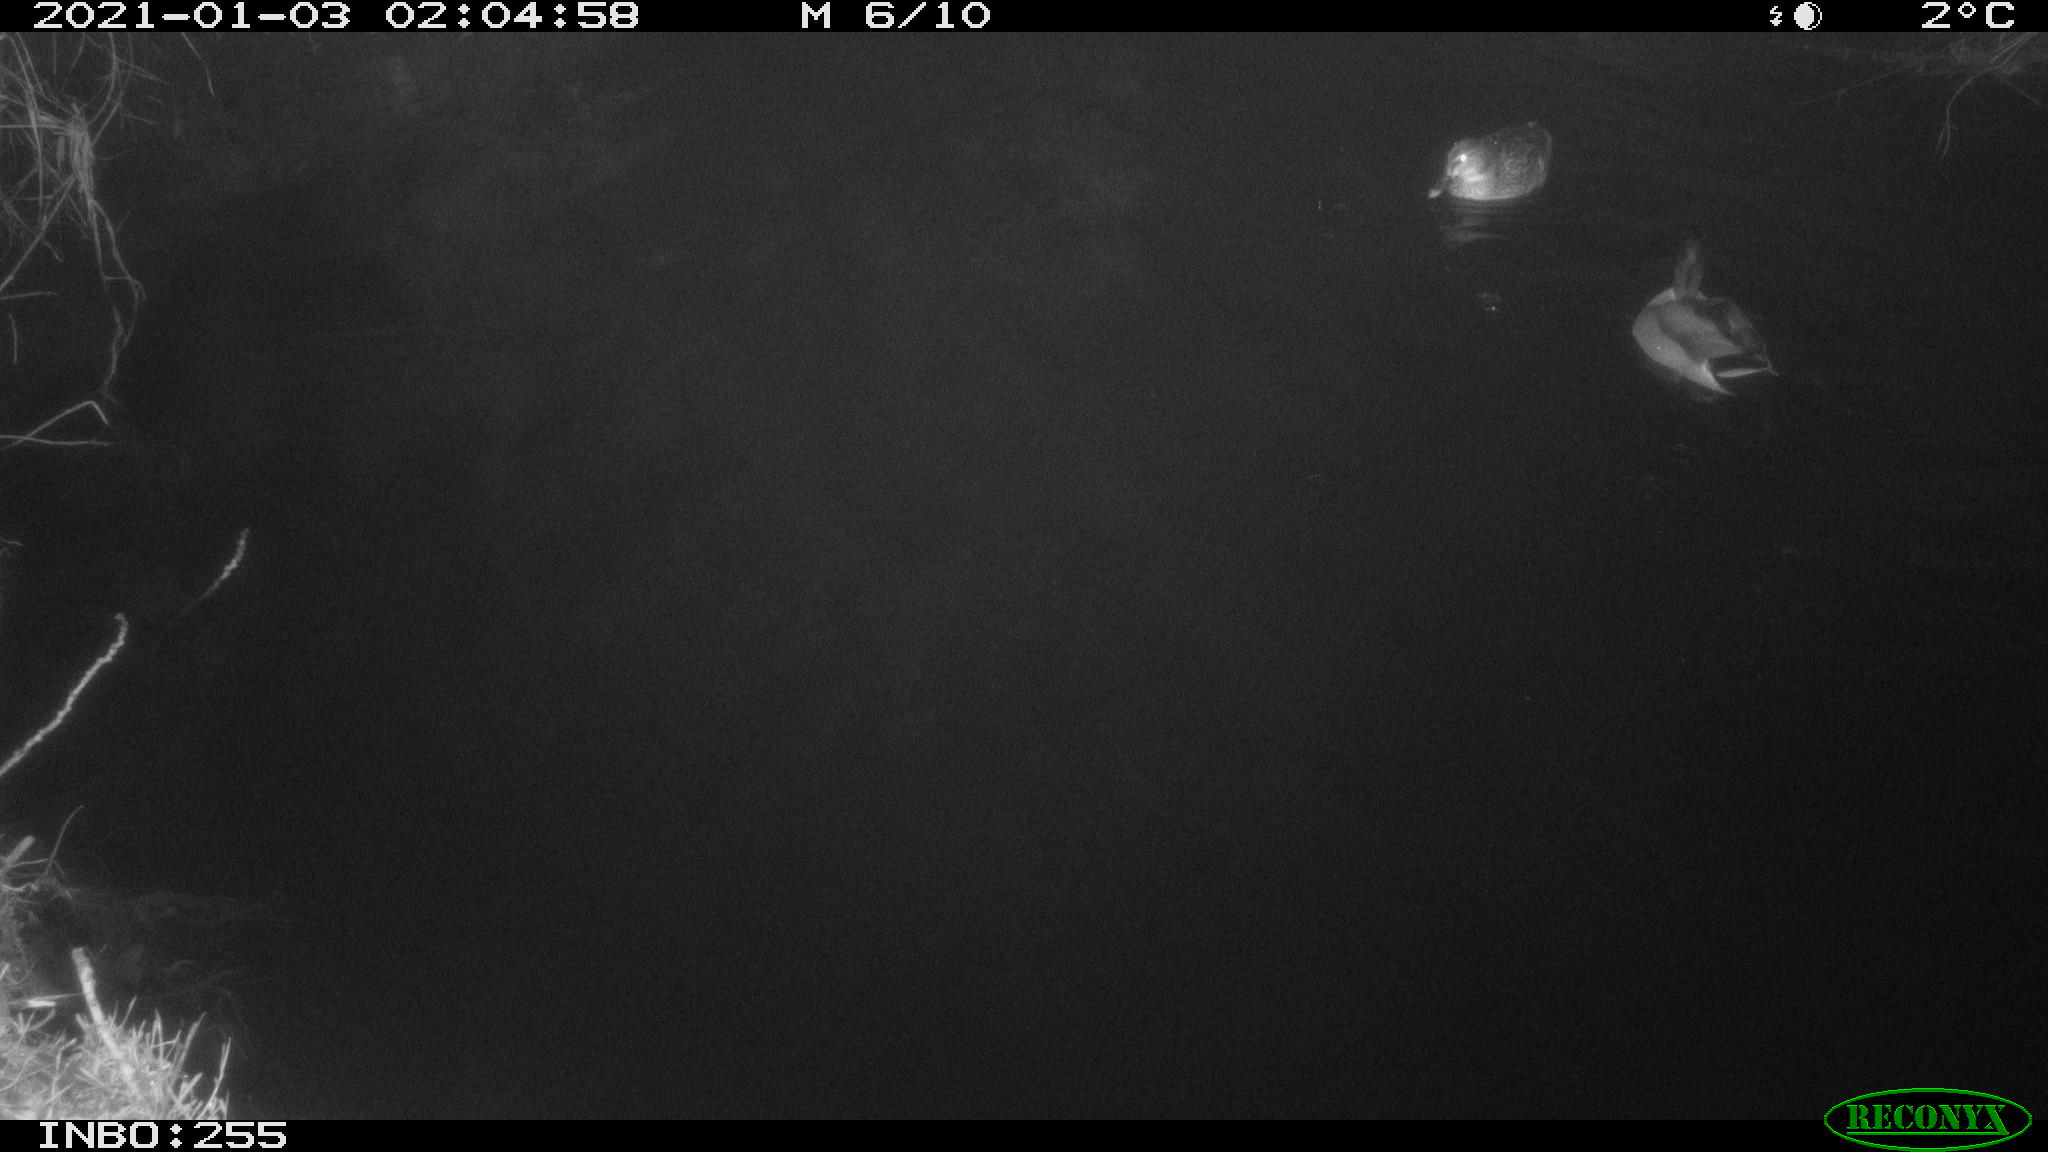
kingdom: Animalia
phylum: Chordata
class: Aves
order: Anseriformes
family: Anatidae
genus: Anas
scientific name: Anas platyrhynchos
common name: Mallard
